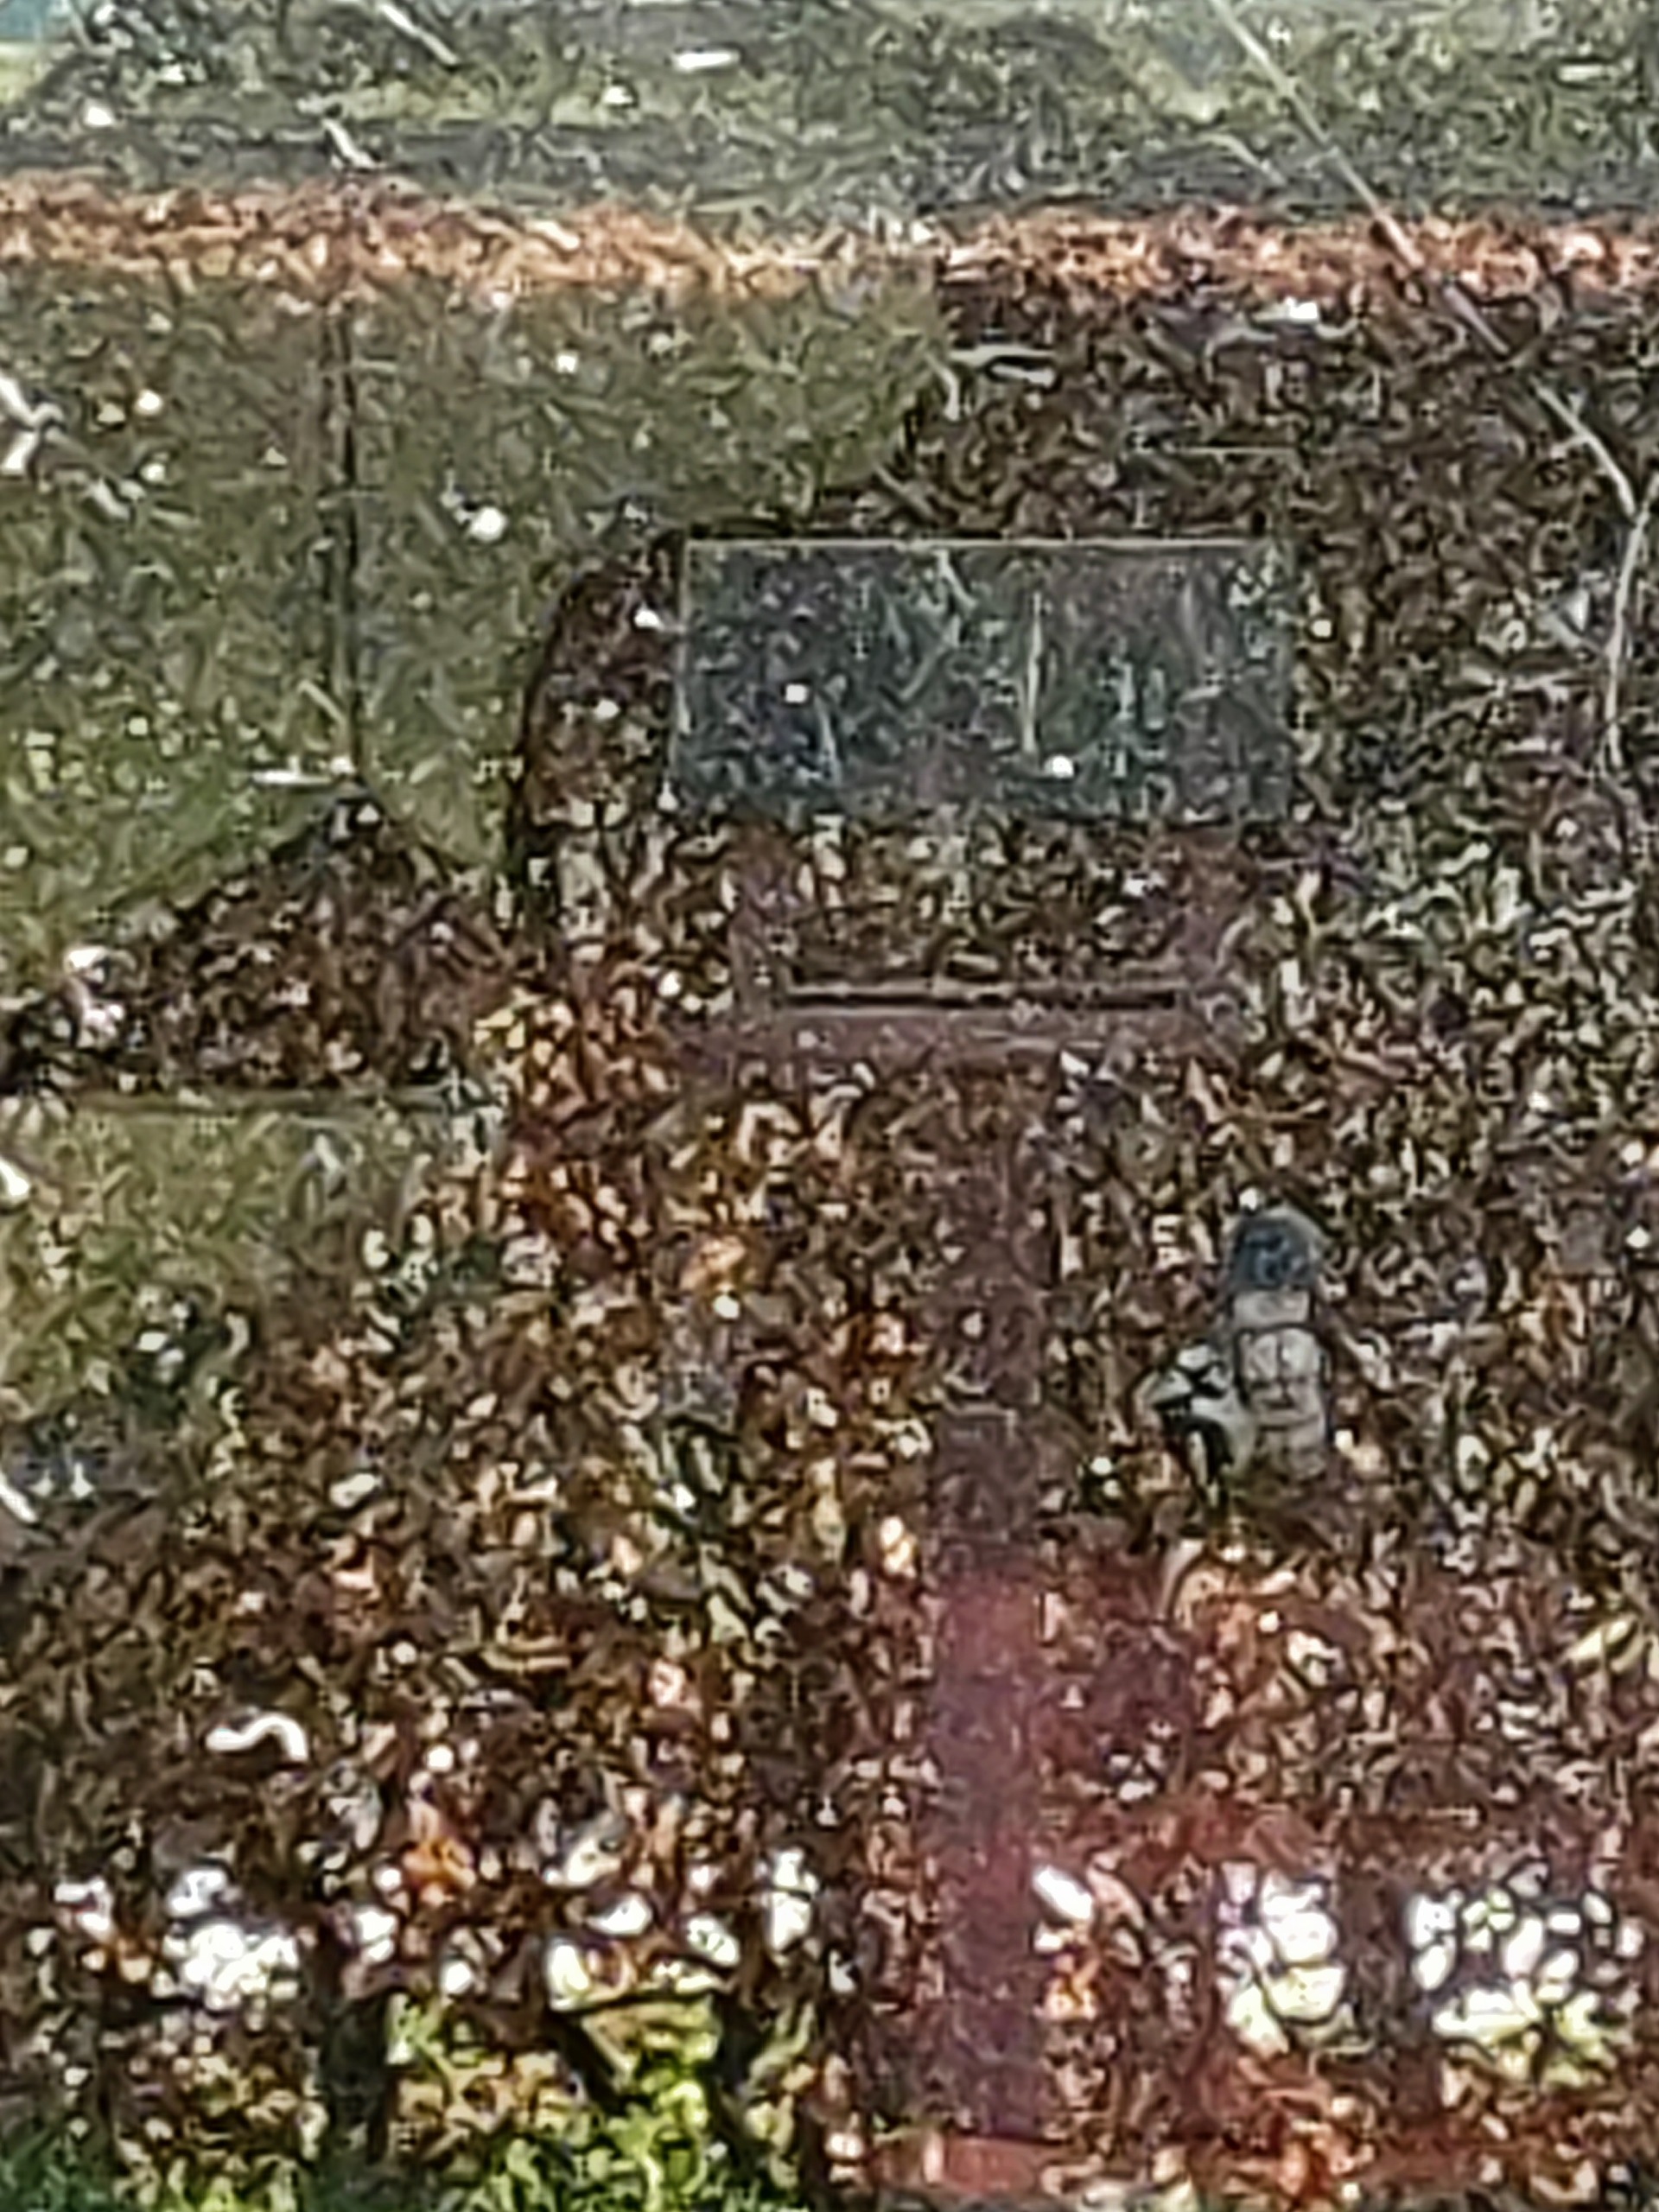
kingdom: Animalia
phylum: Chordata
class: Aves
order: Piciformes
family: Picidae
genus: Dendrocopos
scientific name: Dendrocopos major
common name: Stor flagspætte
